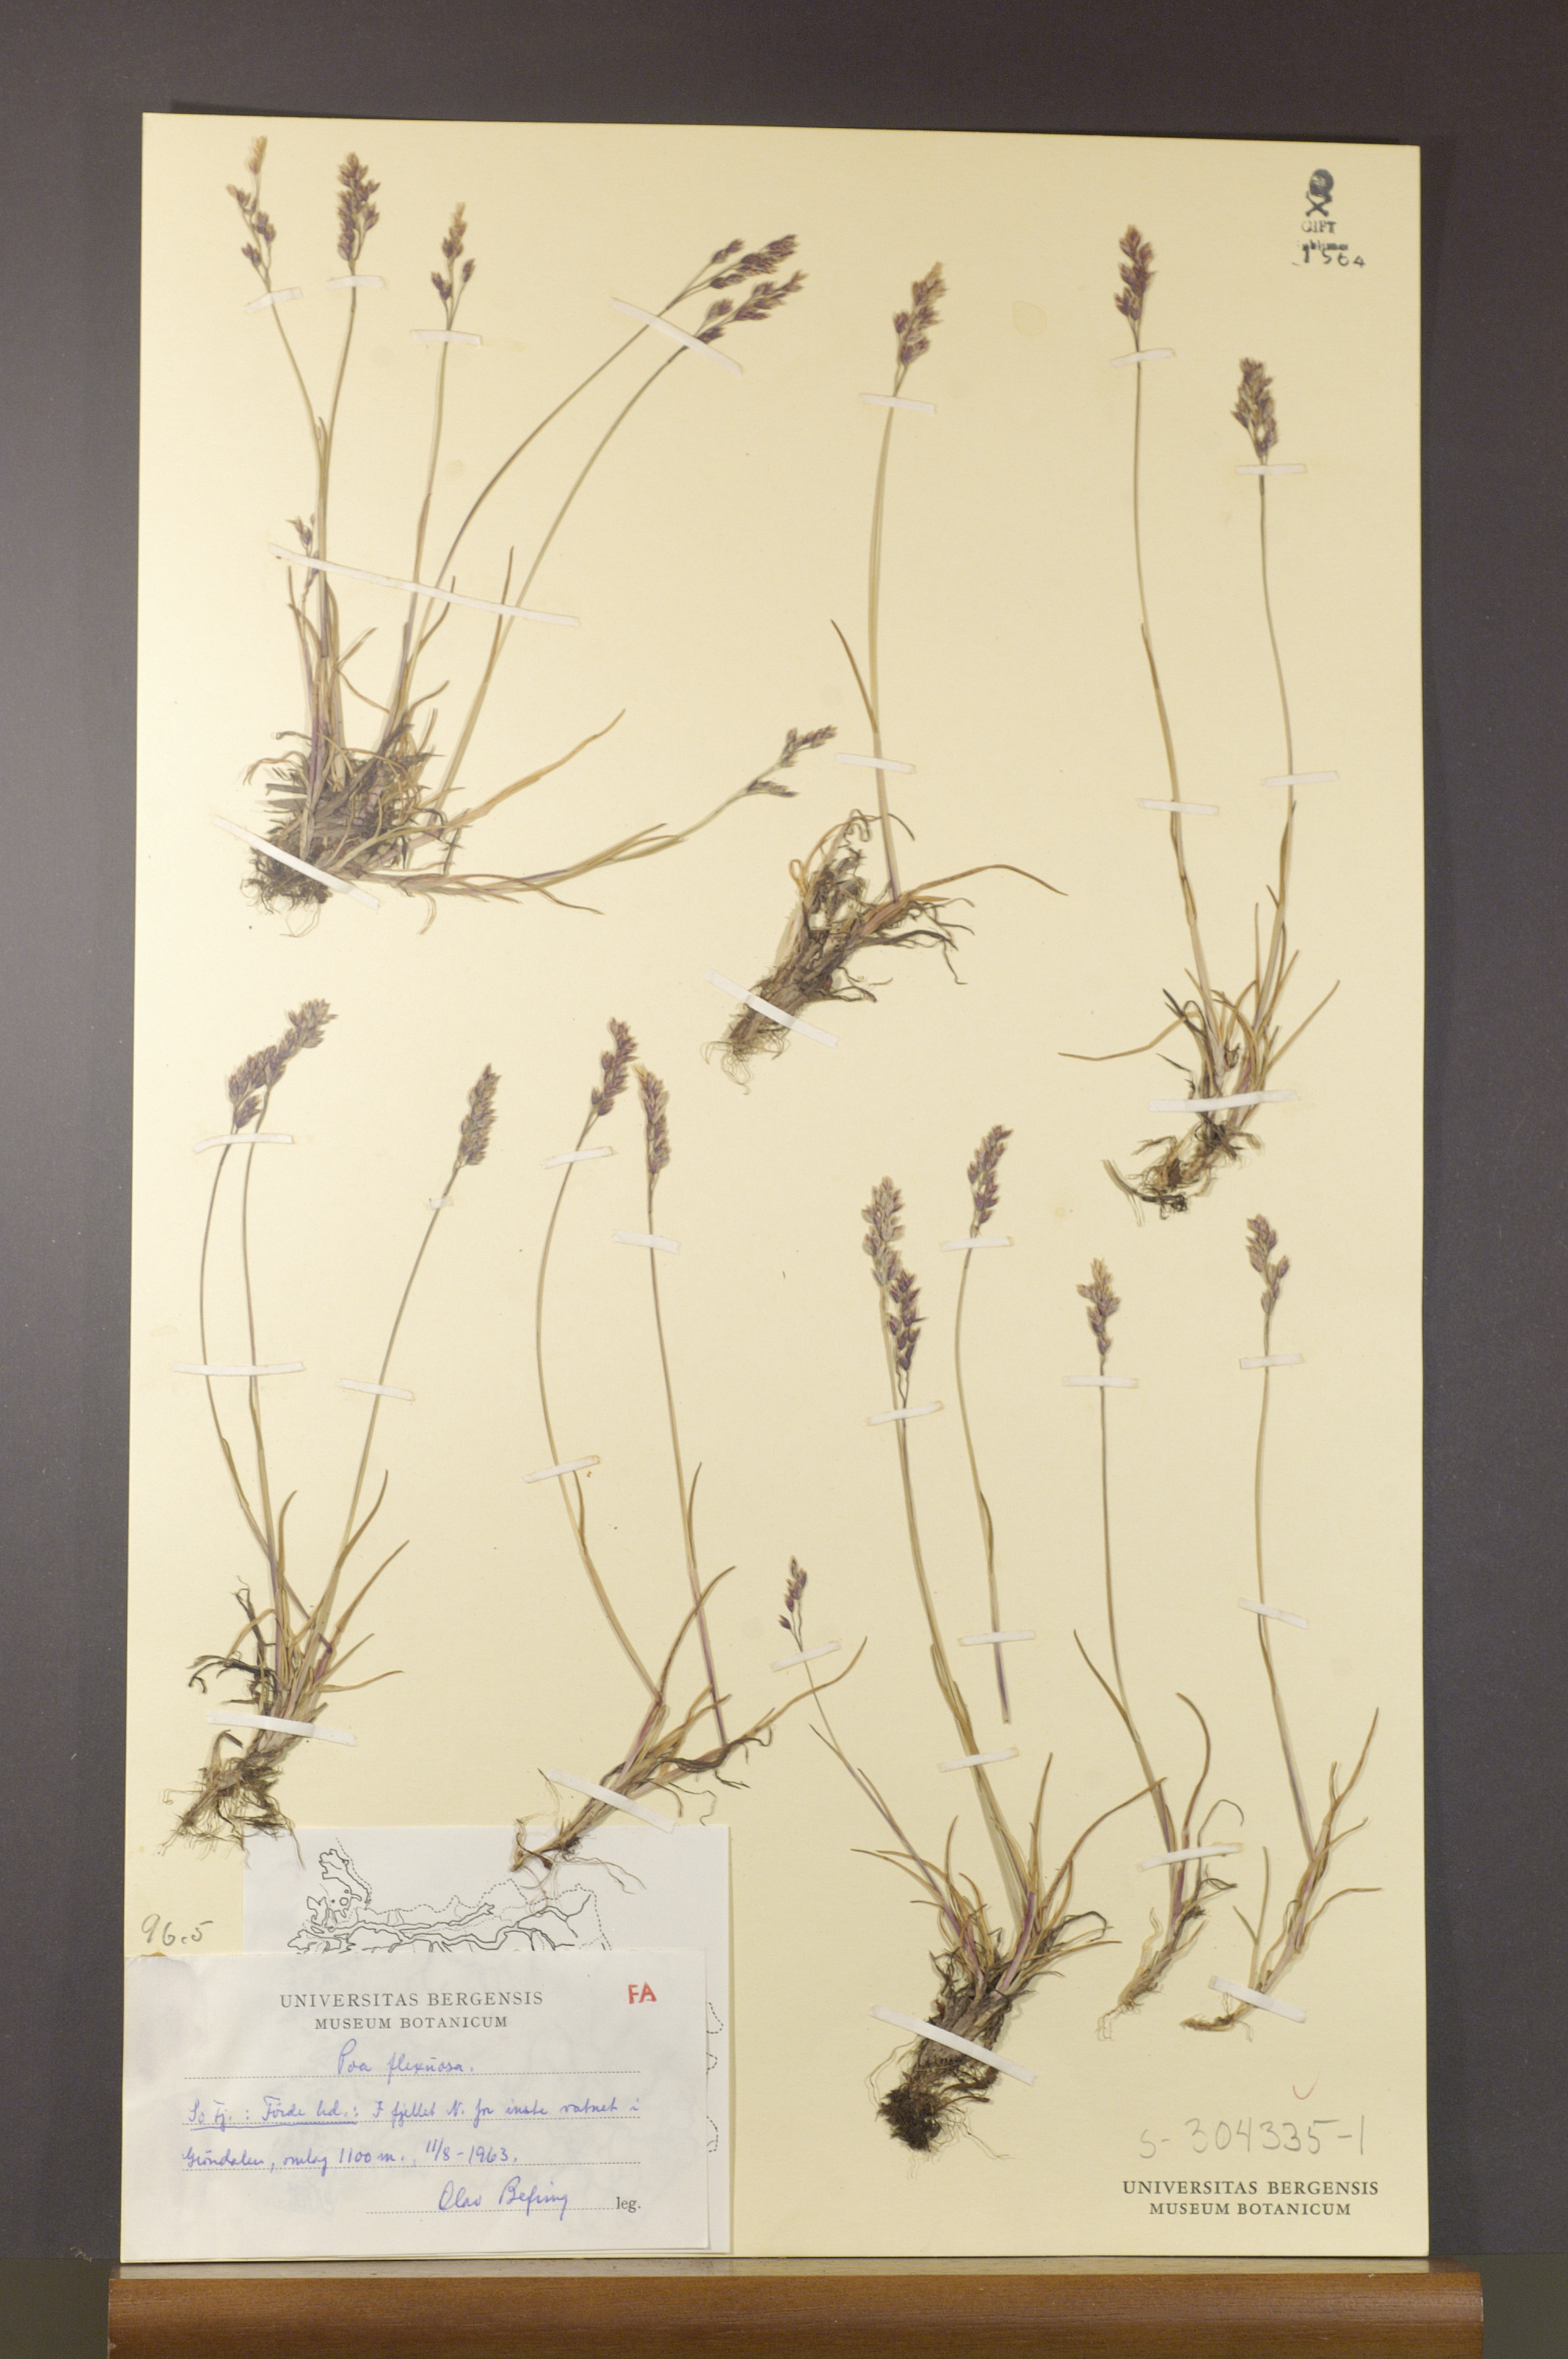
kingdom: Plantae
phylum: Tracheophyta
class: Liliopsida
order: Poales
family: Poaceae
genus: Poa
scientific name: Poa flexuosa
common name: Wavy meadow-grass
